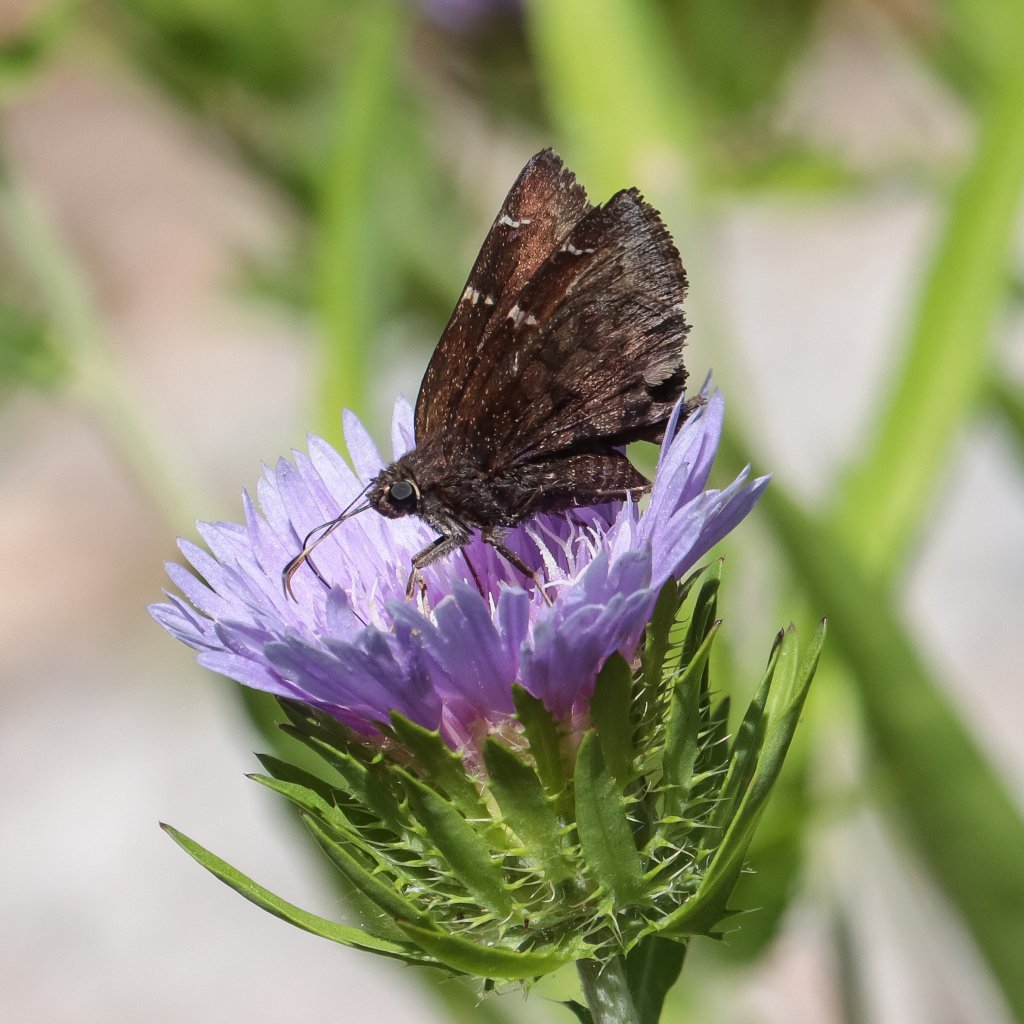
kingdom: Animalia
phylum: Arthropoda
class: Insecta
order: Lepidoptera
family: Hesperiidae
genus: Autochton
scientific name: Autochton
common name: Northern Cloudywing
